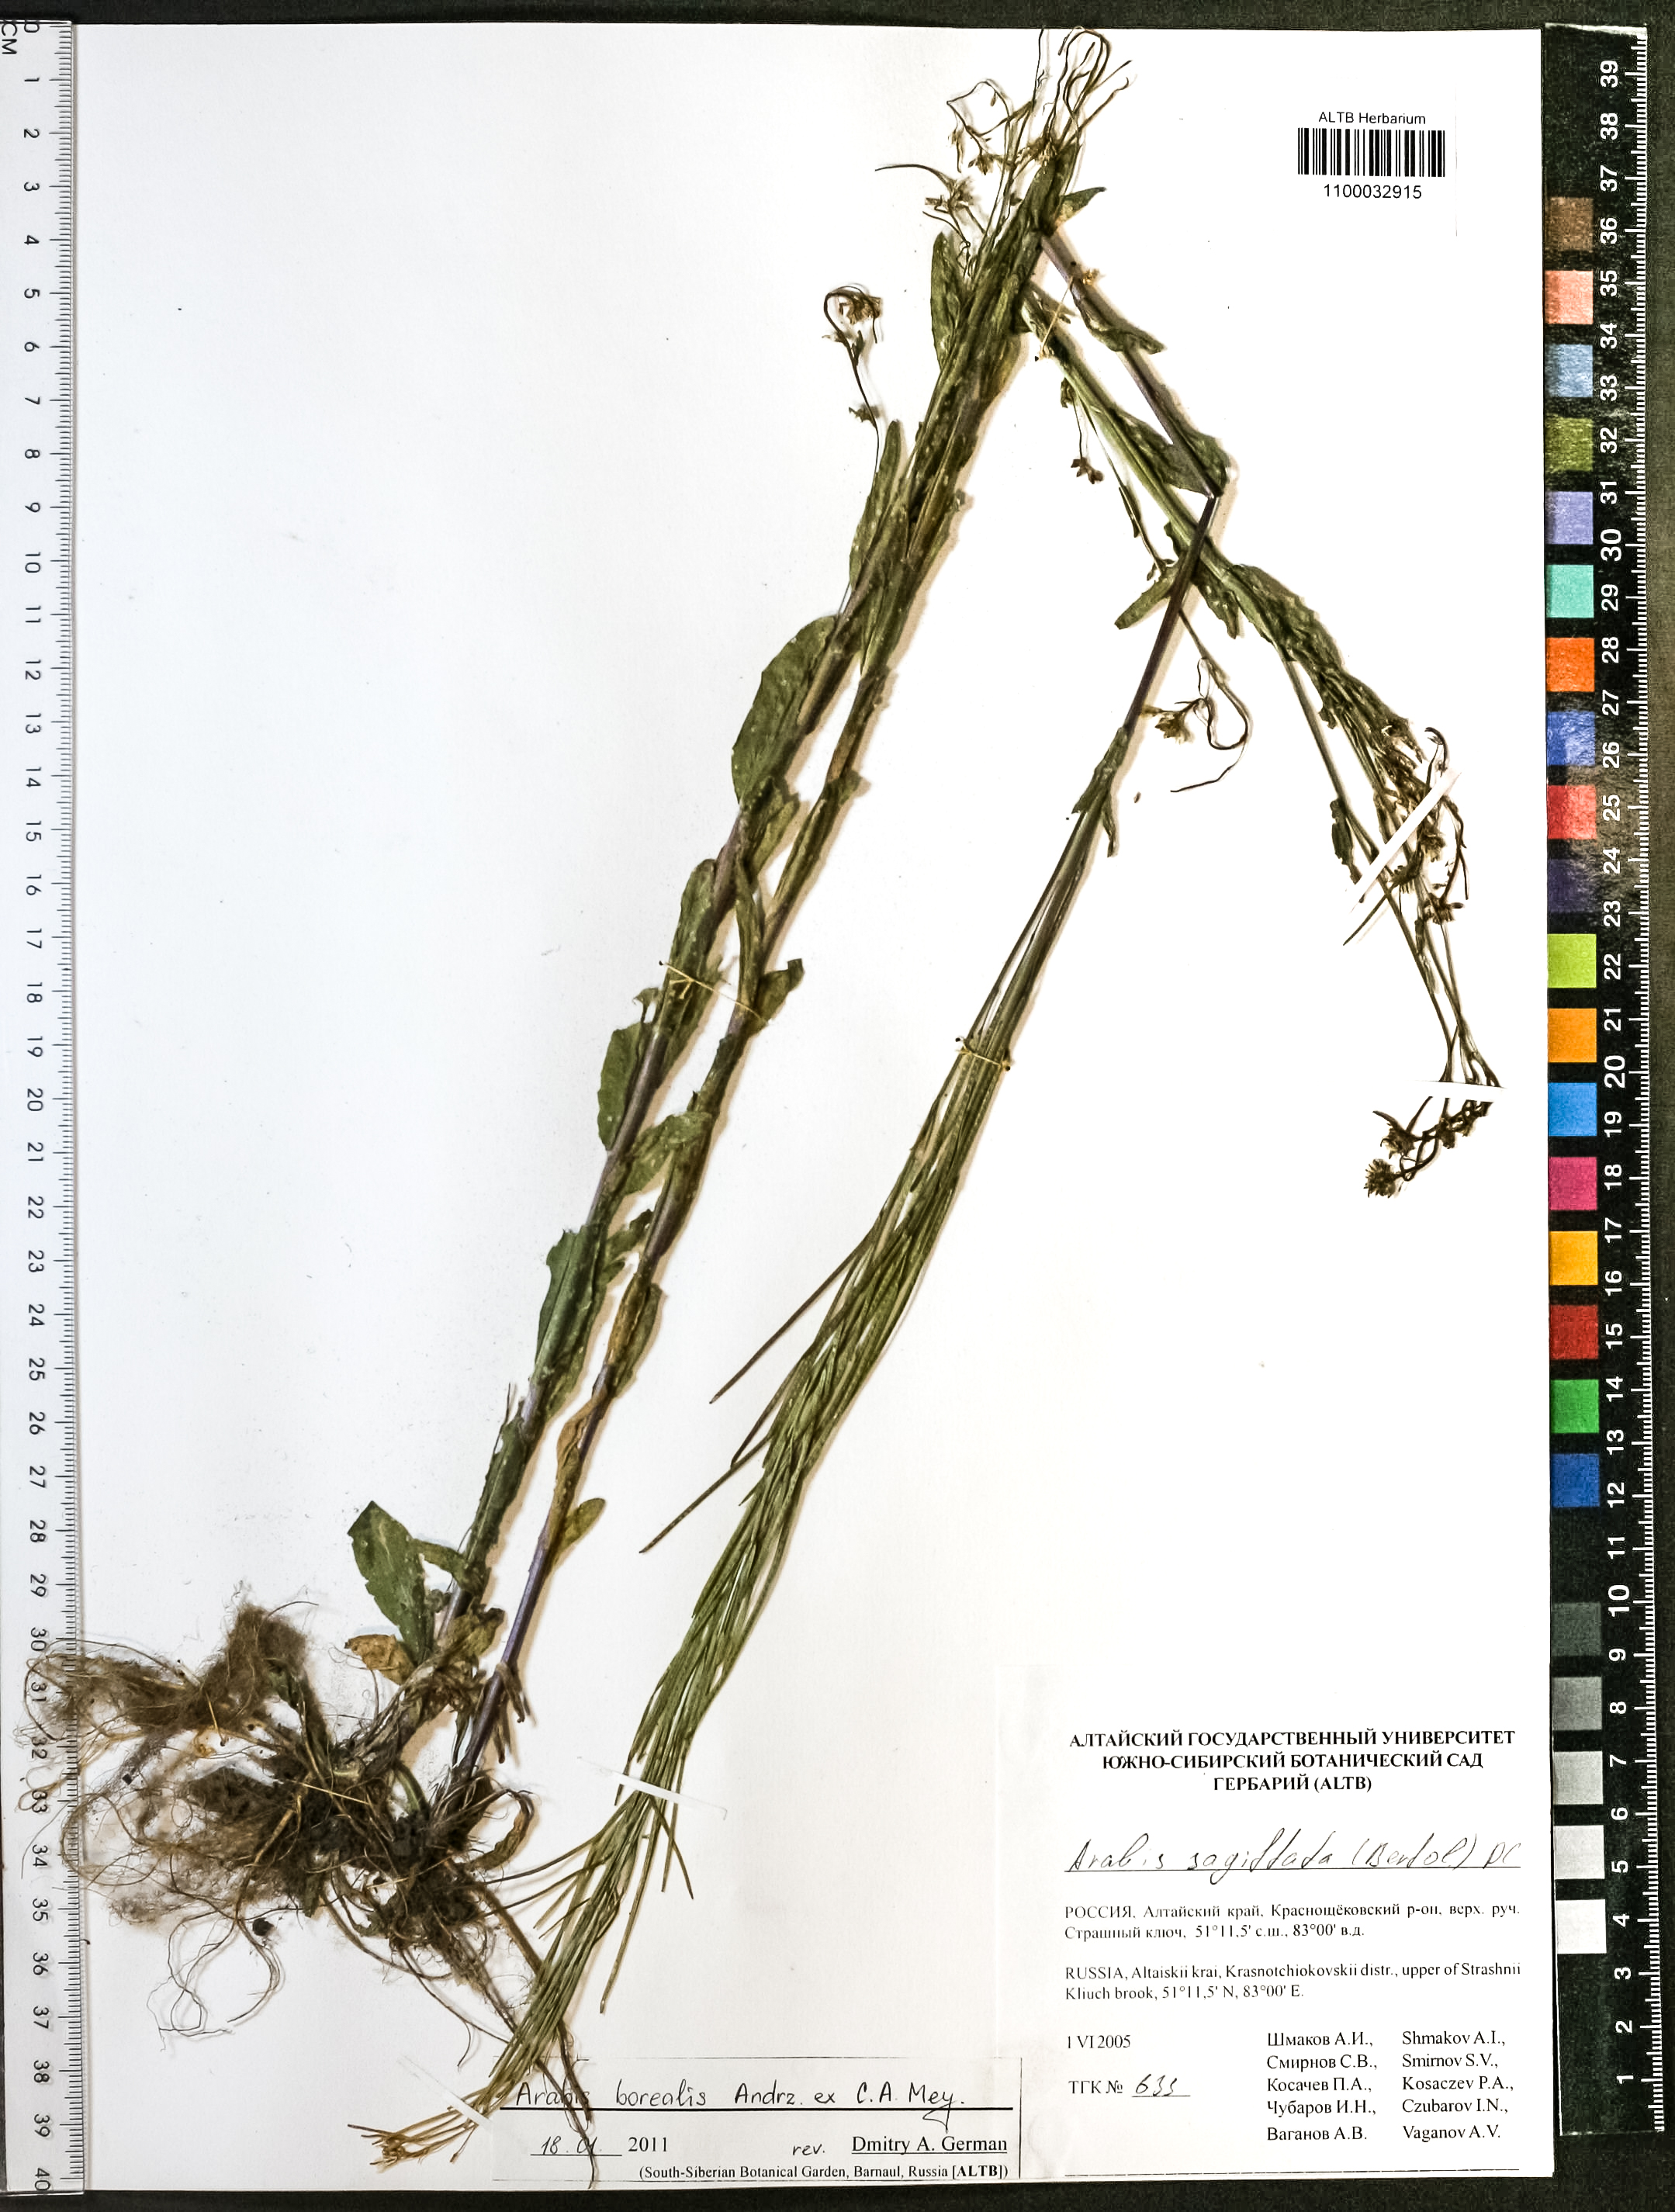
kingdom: Plantae
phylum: Tracheophyta
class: Magnoliopsida
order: Brassicales
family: Brassicaceae
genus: Arabis
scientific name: Arabis borealis
